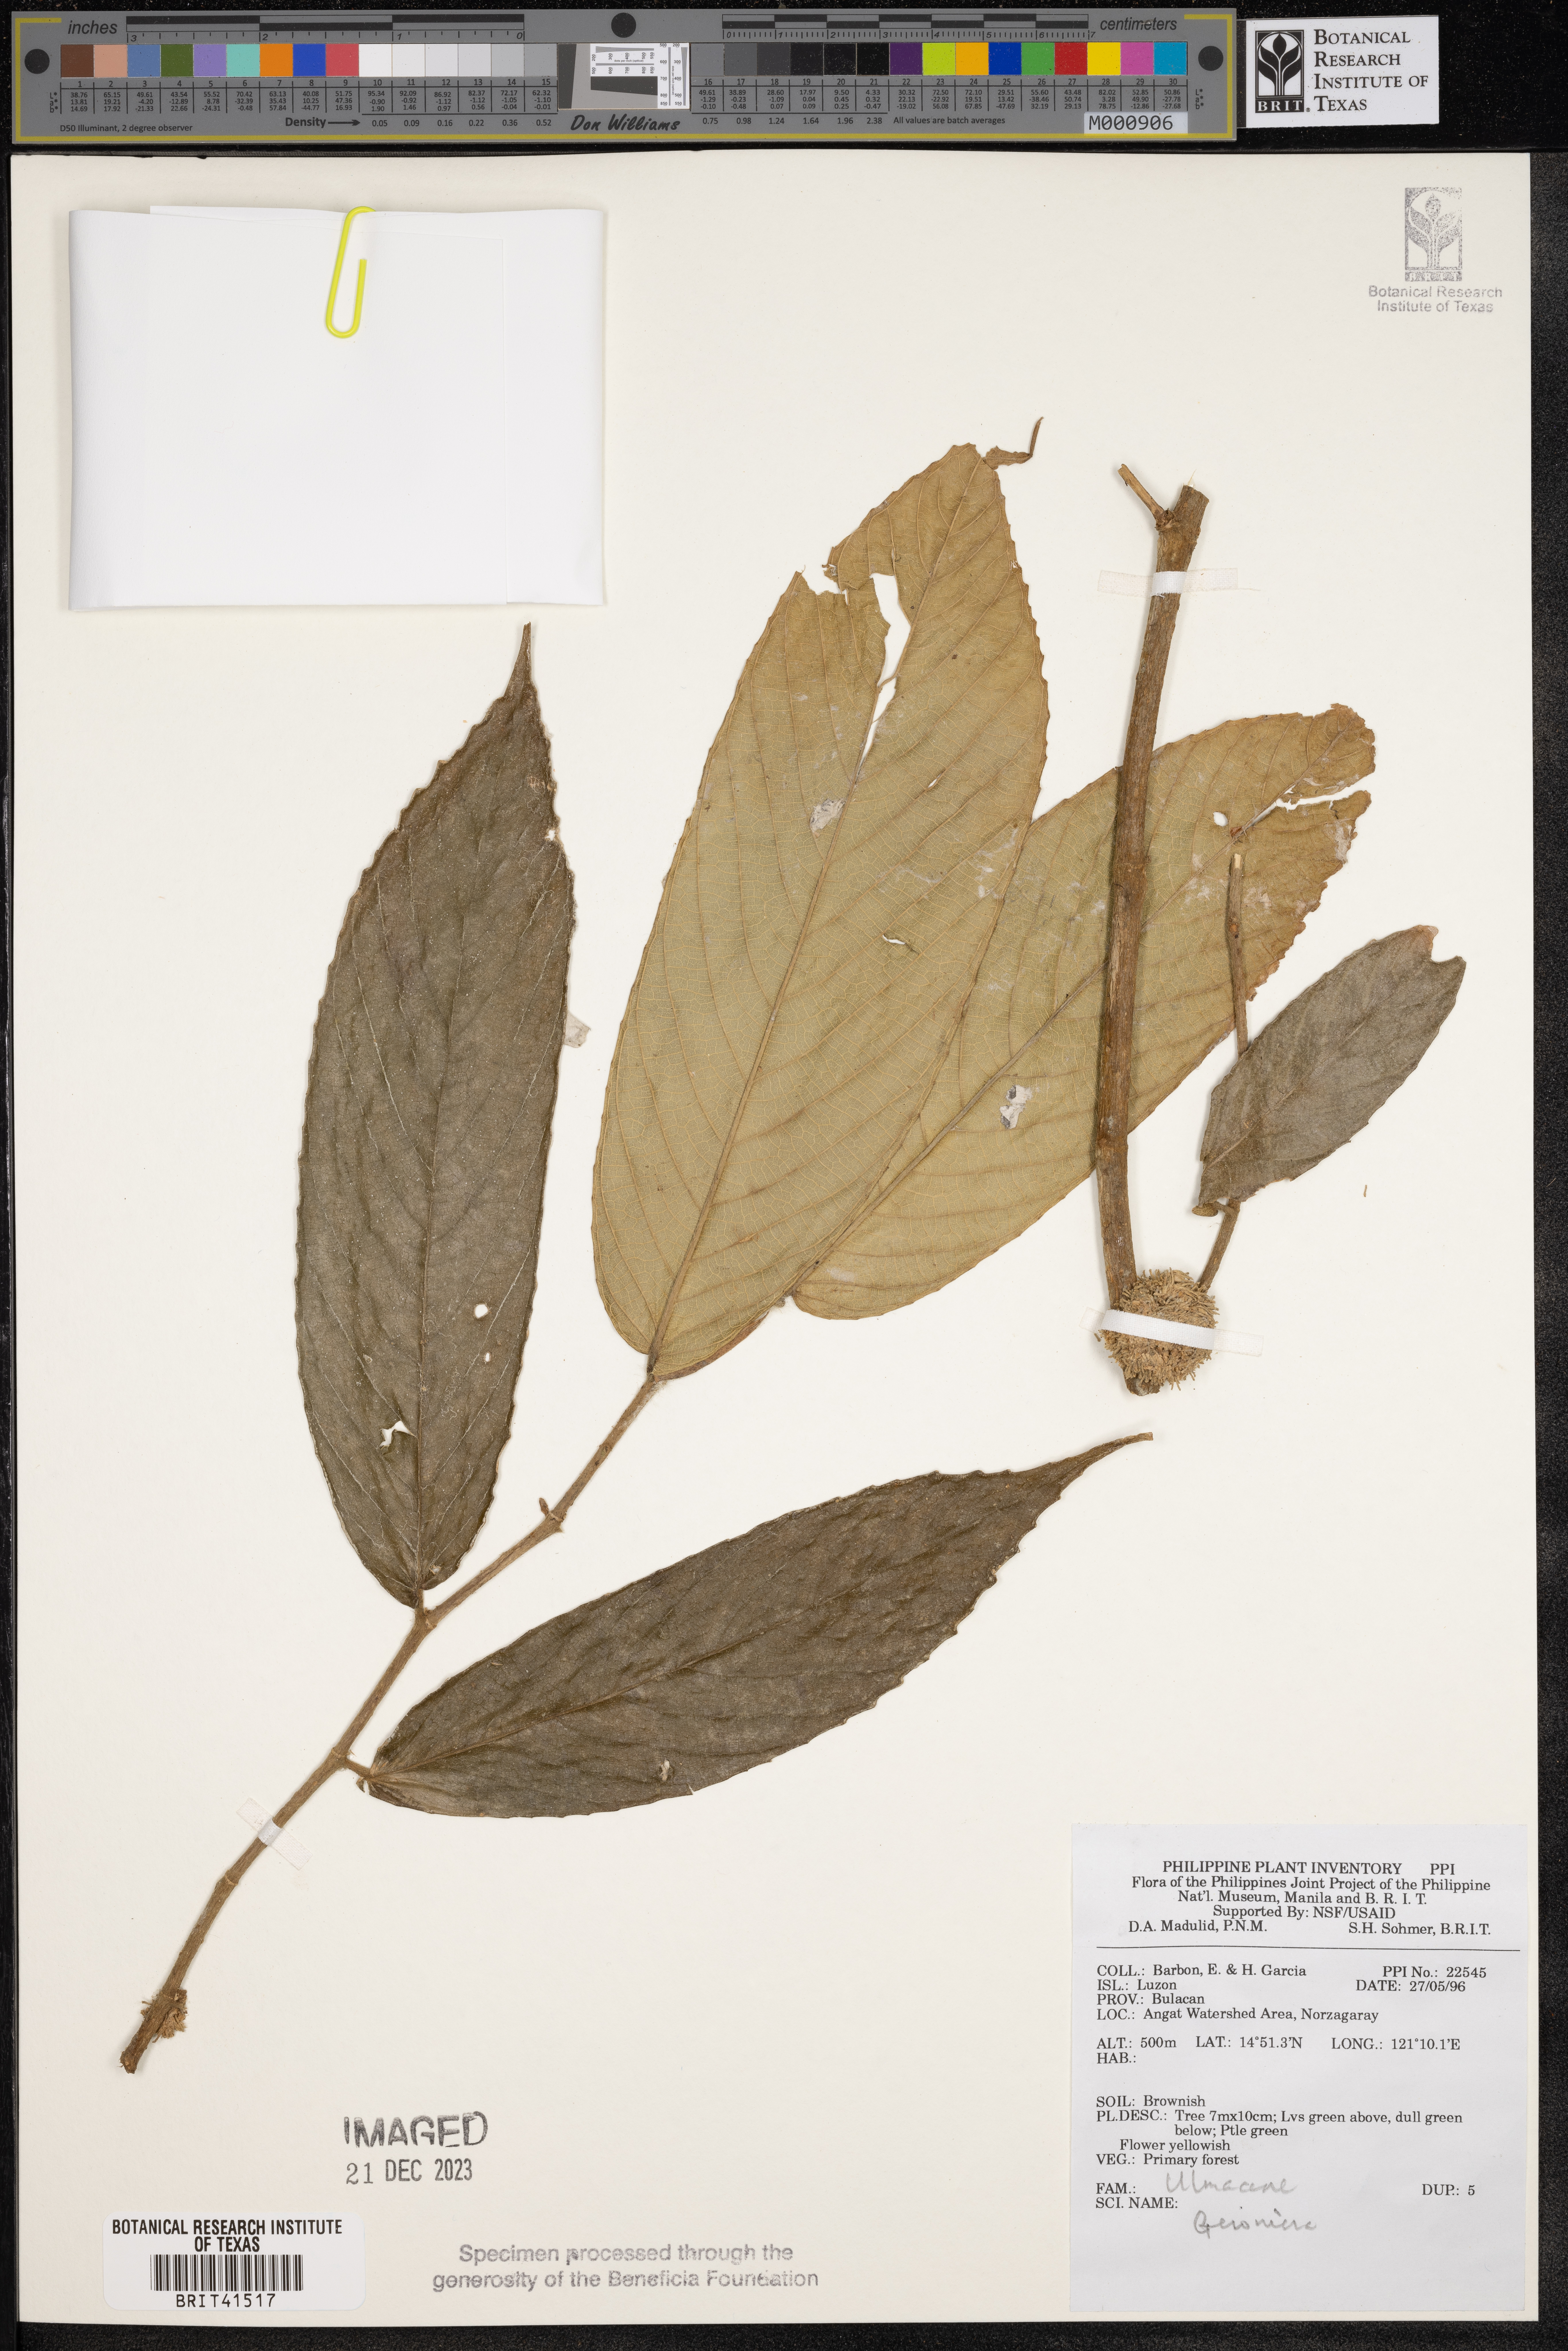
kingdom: Plantae
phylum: Tracheophyta
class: Magnoliopsida
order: Rosales
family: Cannabaceae
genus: Gironniera
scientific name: Gironniera
